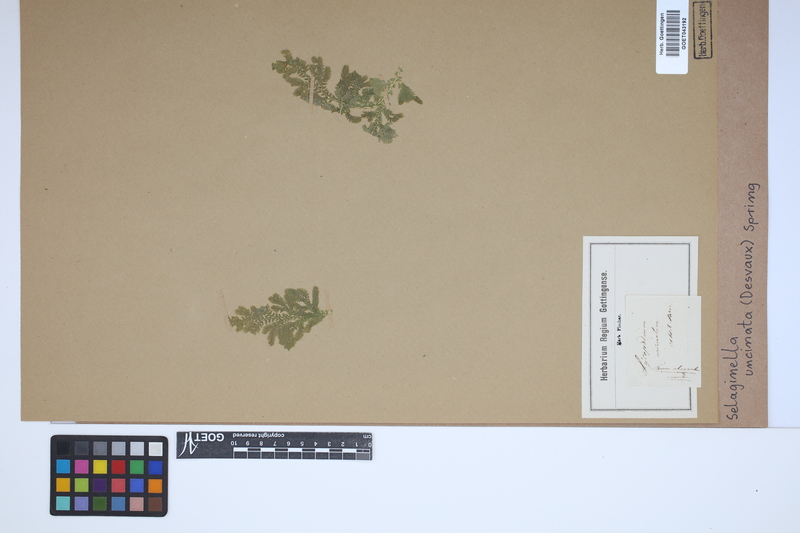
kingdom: Plantae
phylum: Tracheophyta
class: Lycopodiopsida
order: Selaginellales
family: Selaginellaceae
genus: Selaginella
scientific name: Selaginella uncinata
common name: Blue spikemoss
